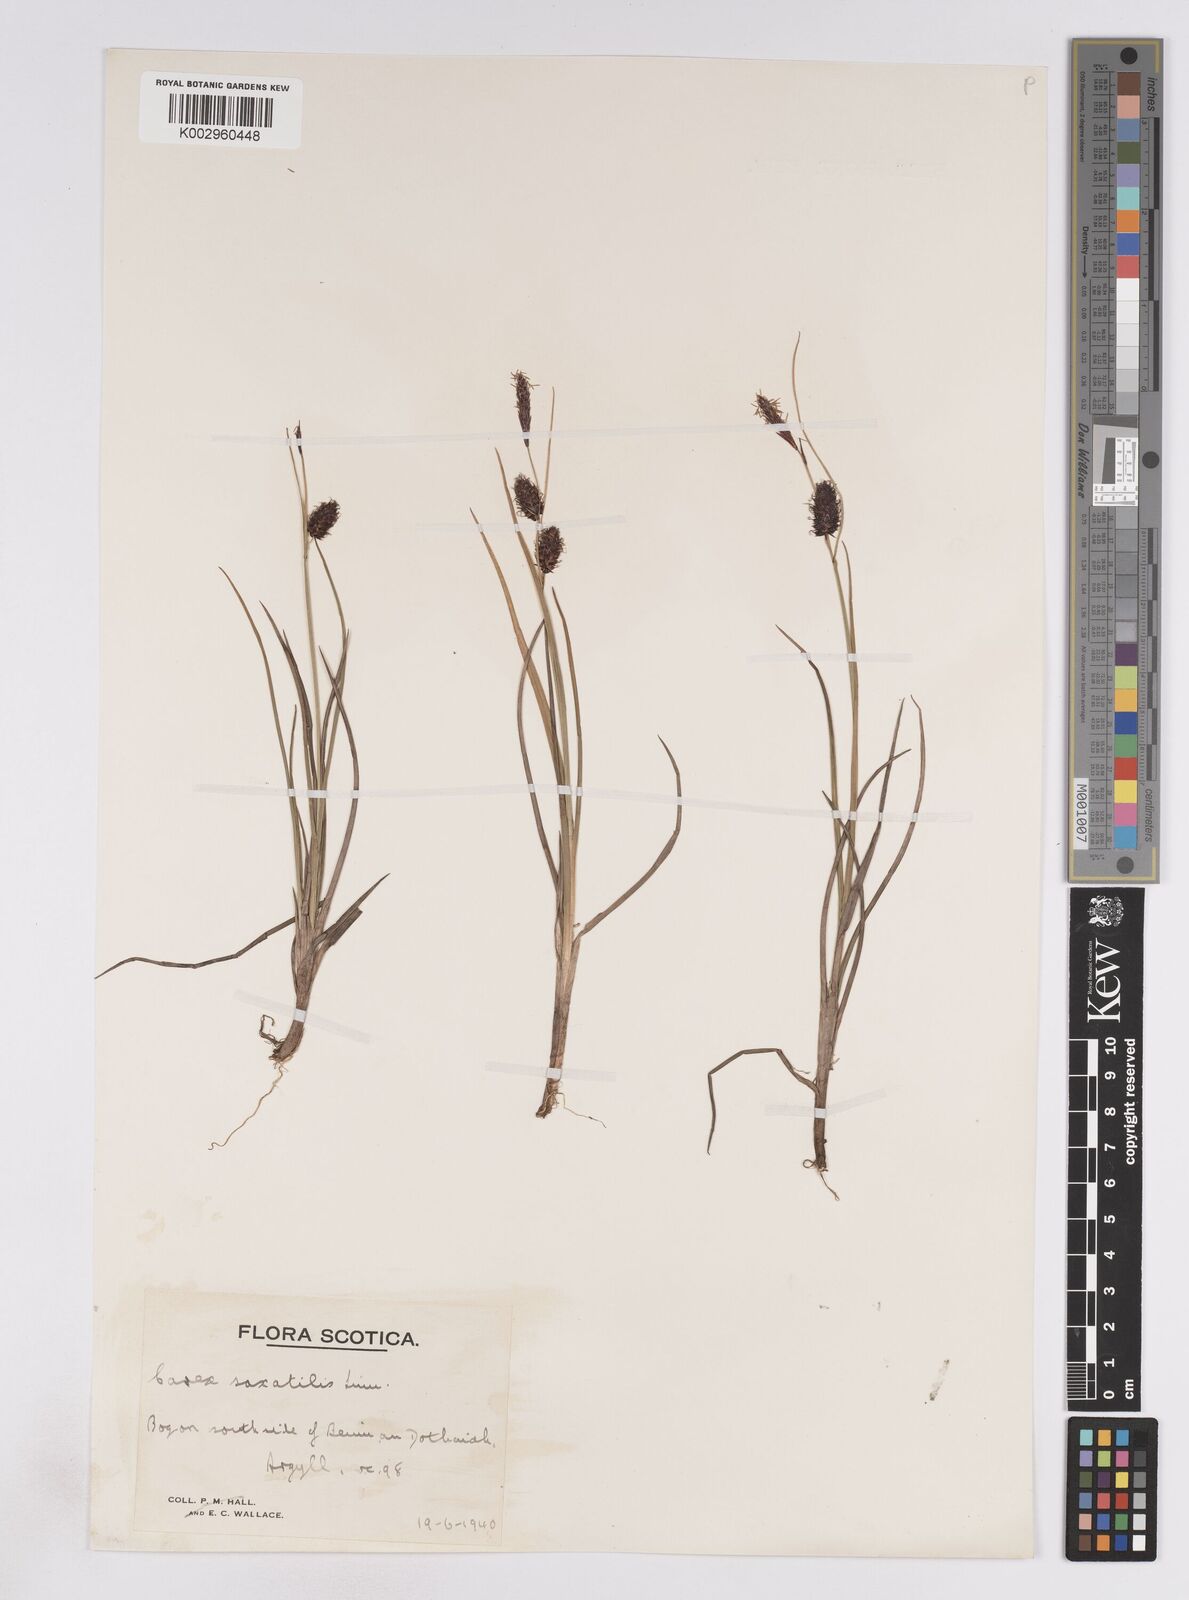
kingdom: Plantae
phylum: Tracheophyta
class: Liliopsida
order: Poales
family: Cyperaceae
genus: Carex
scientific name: Carex saxatilis
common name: Russet sedge
